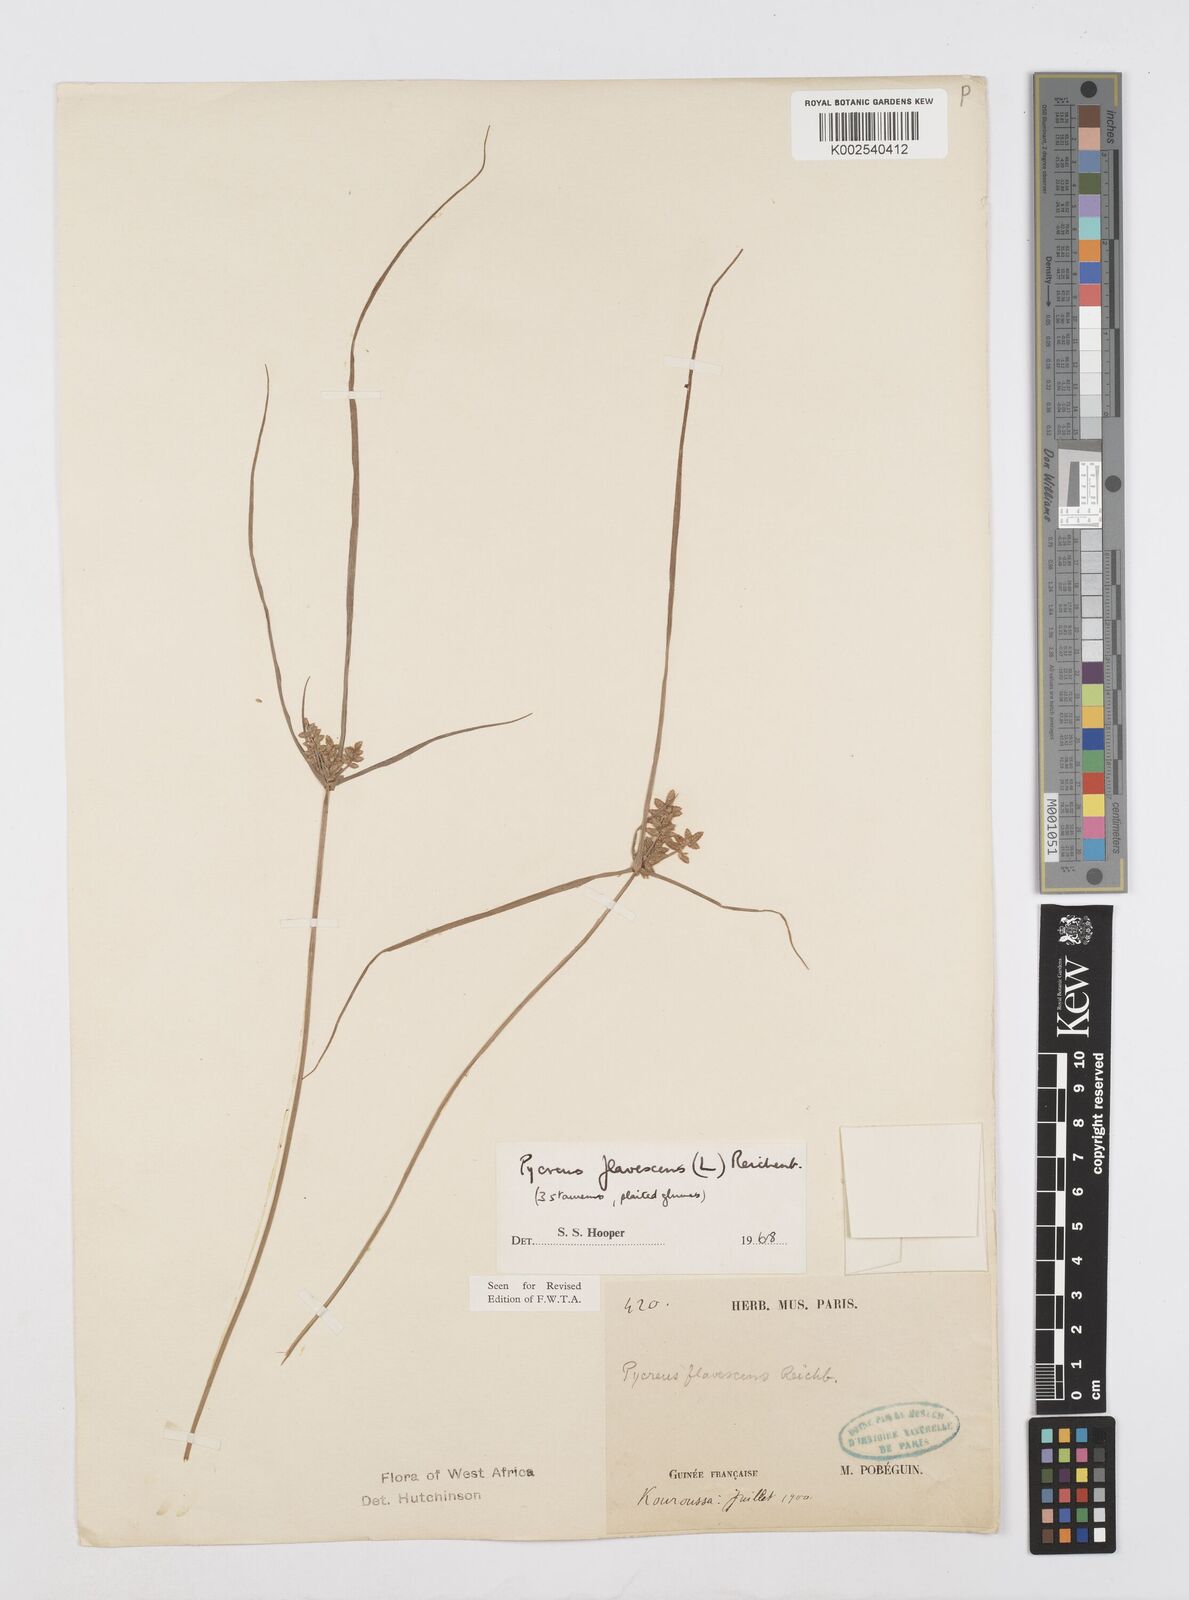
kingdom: Plantae
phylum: Tracheophyta
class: Liliopsida
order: Poales
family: Cyperaceae
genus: Cyperus
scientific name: Cyperus flavescens
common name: Yellow galingale
